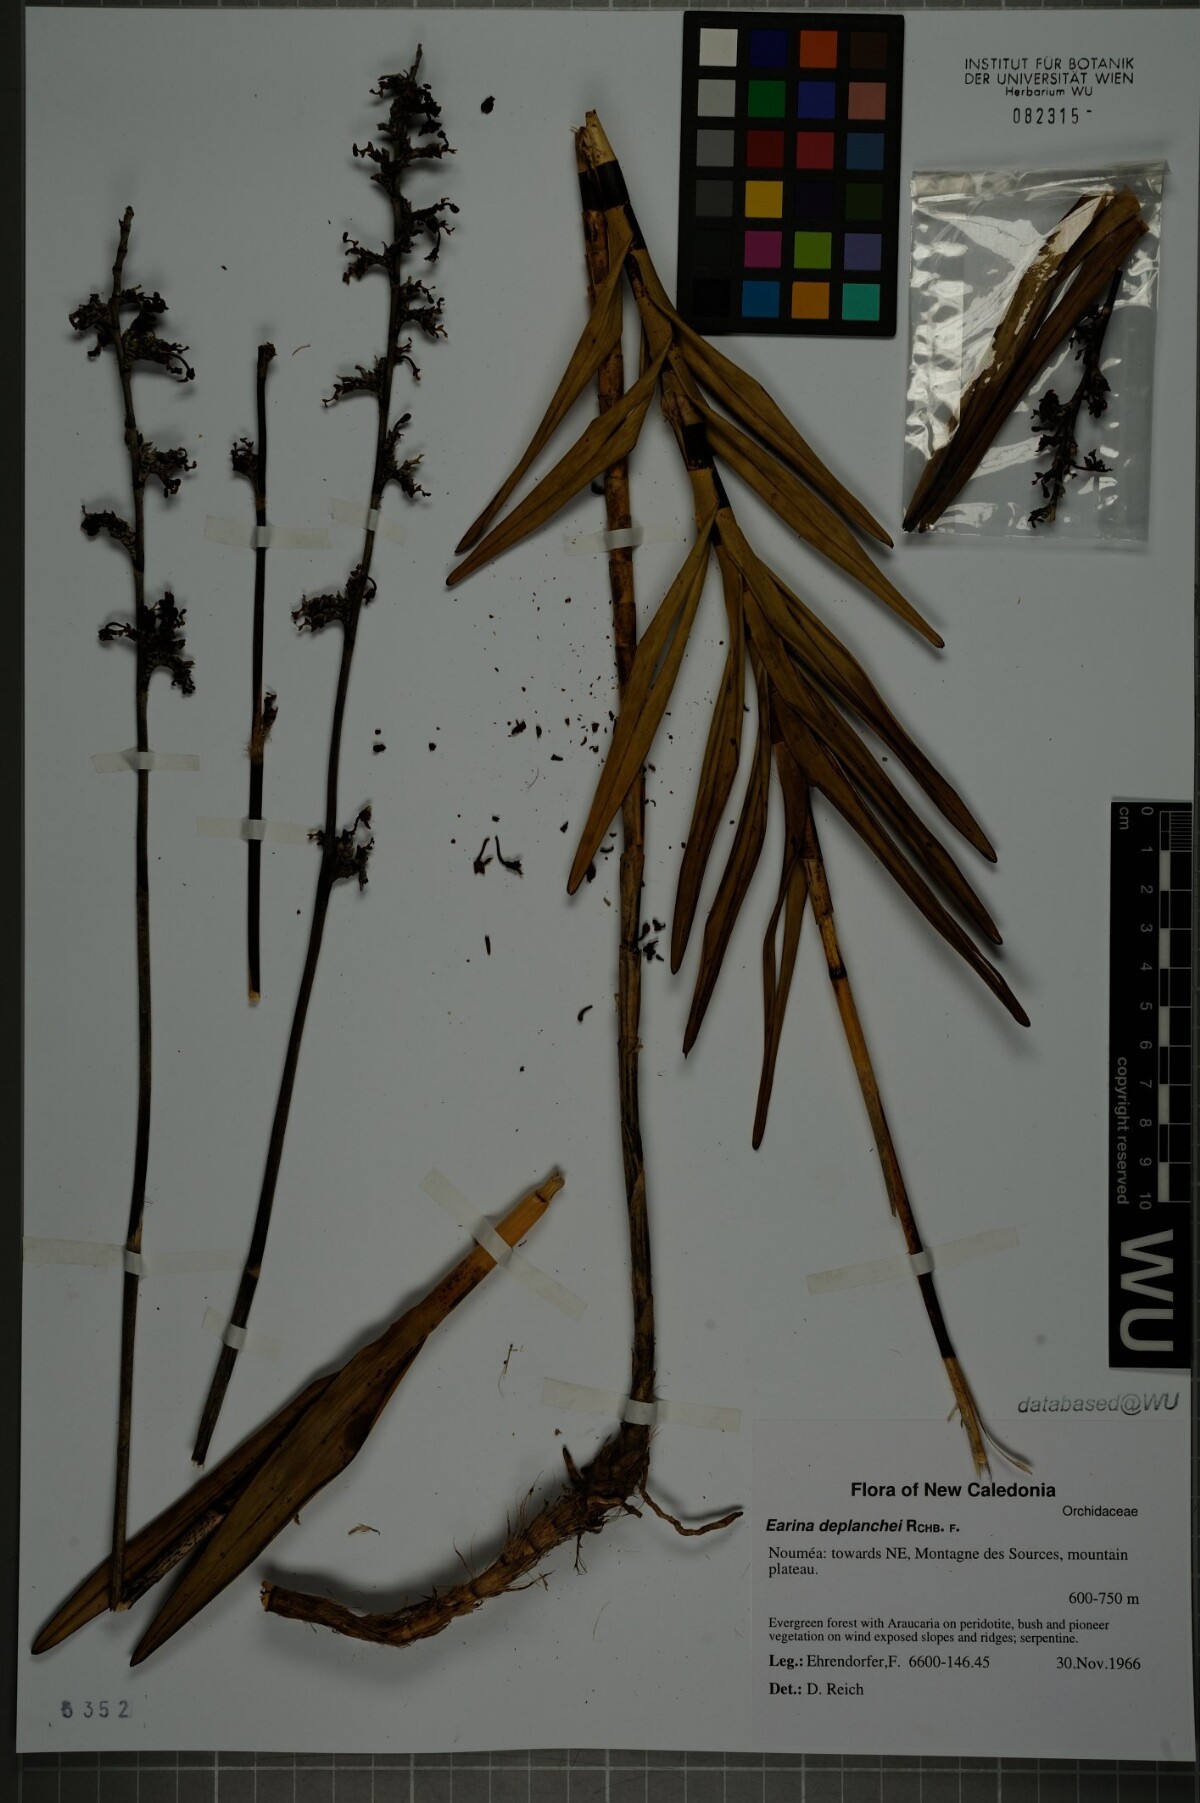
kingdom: Plantae
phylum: Tracheophyta
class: Liliopsida
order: Asparagales
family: Orchidaceae
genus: Earina
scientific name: Earina deplanchei
